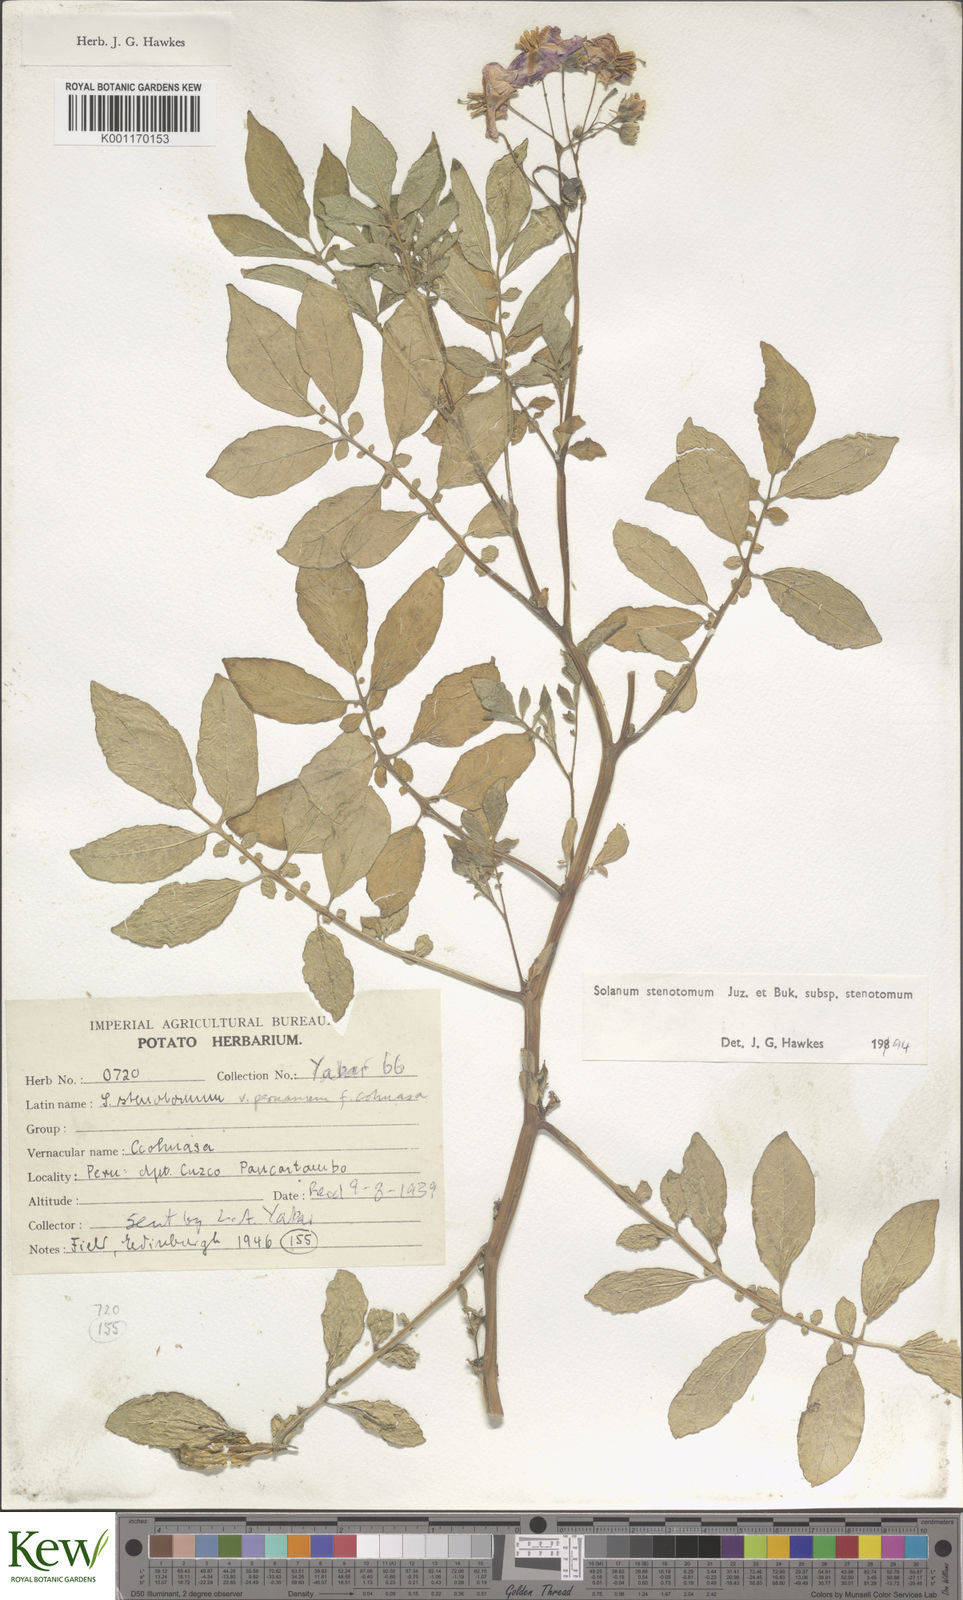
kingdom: Plantae
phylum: Tracheophyta
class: Magnoliopsida
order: Solanales
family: Solanaceae
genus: Solanum
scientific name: Solanum tuberosum
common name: Potato
